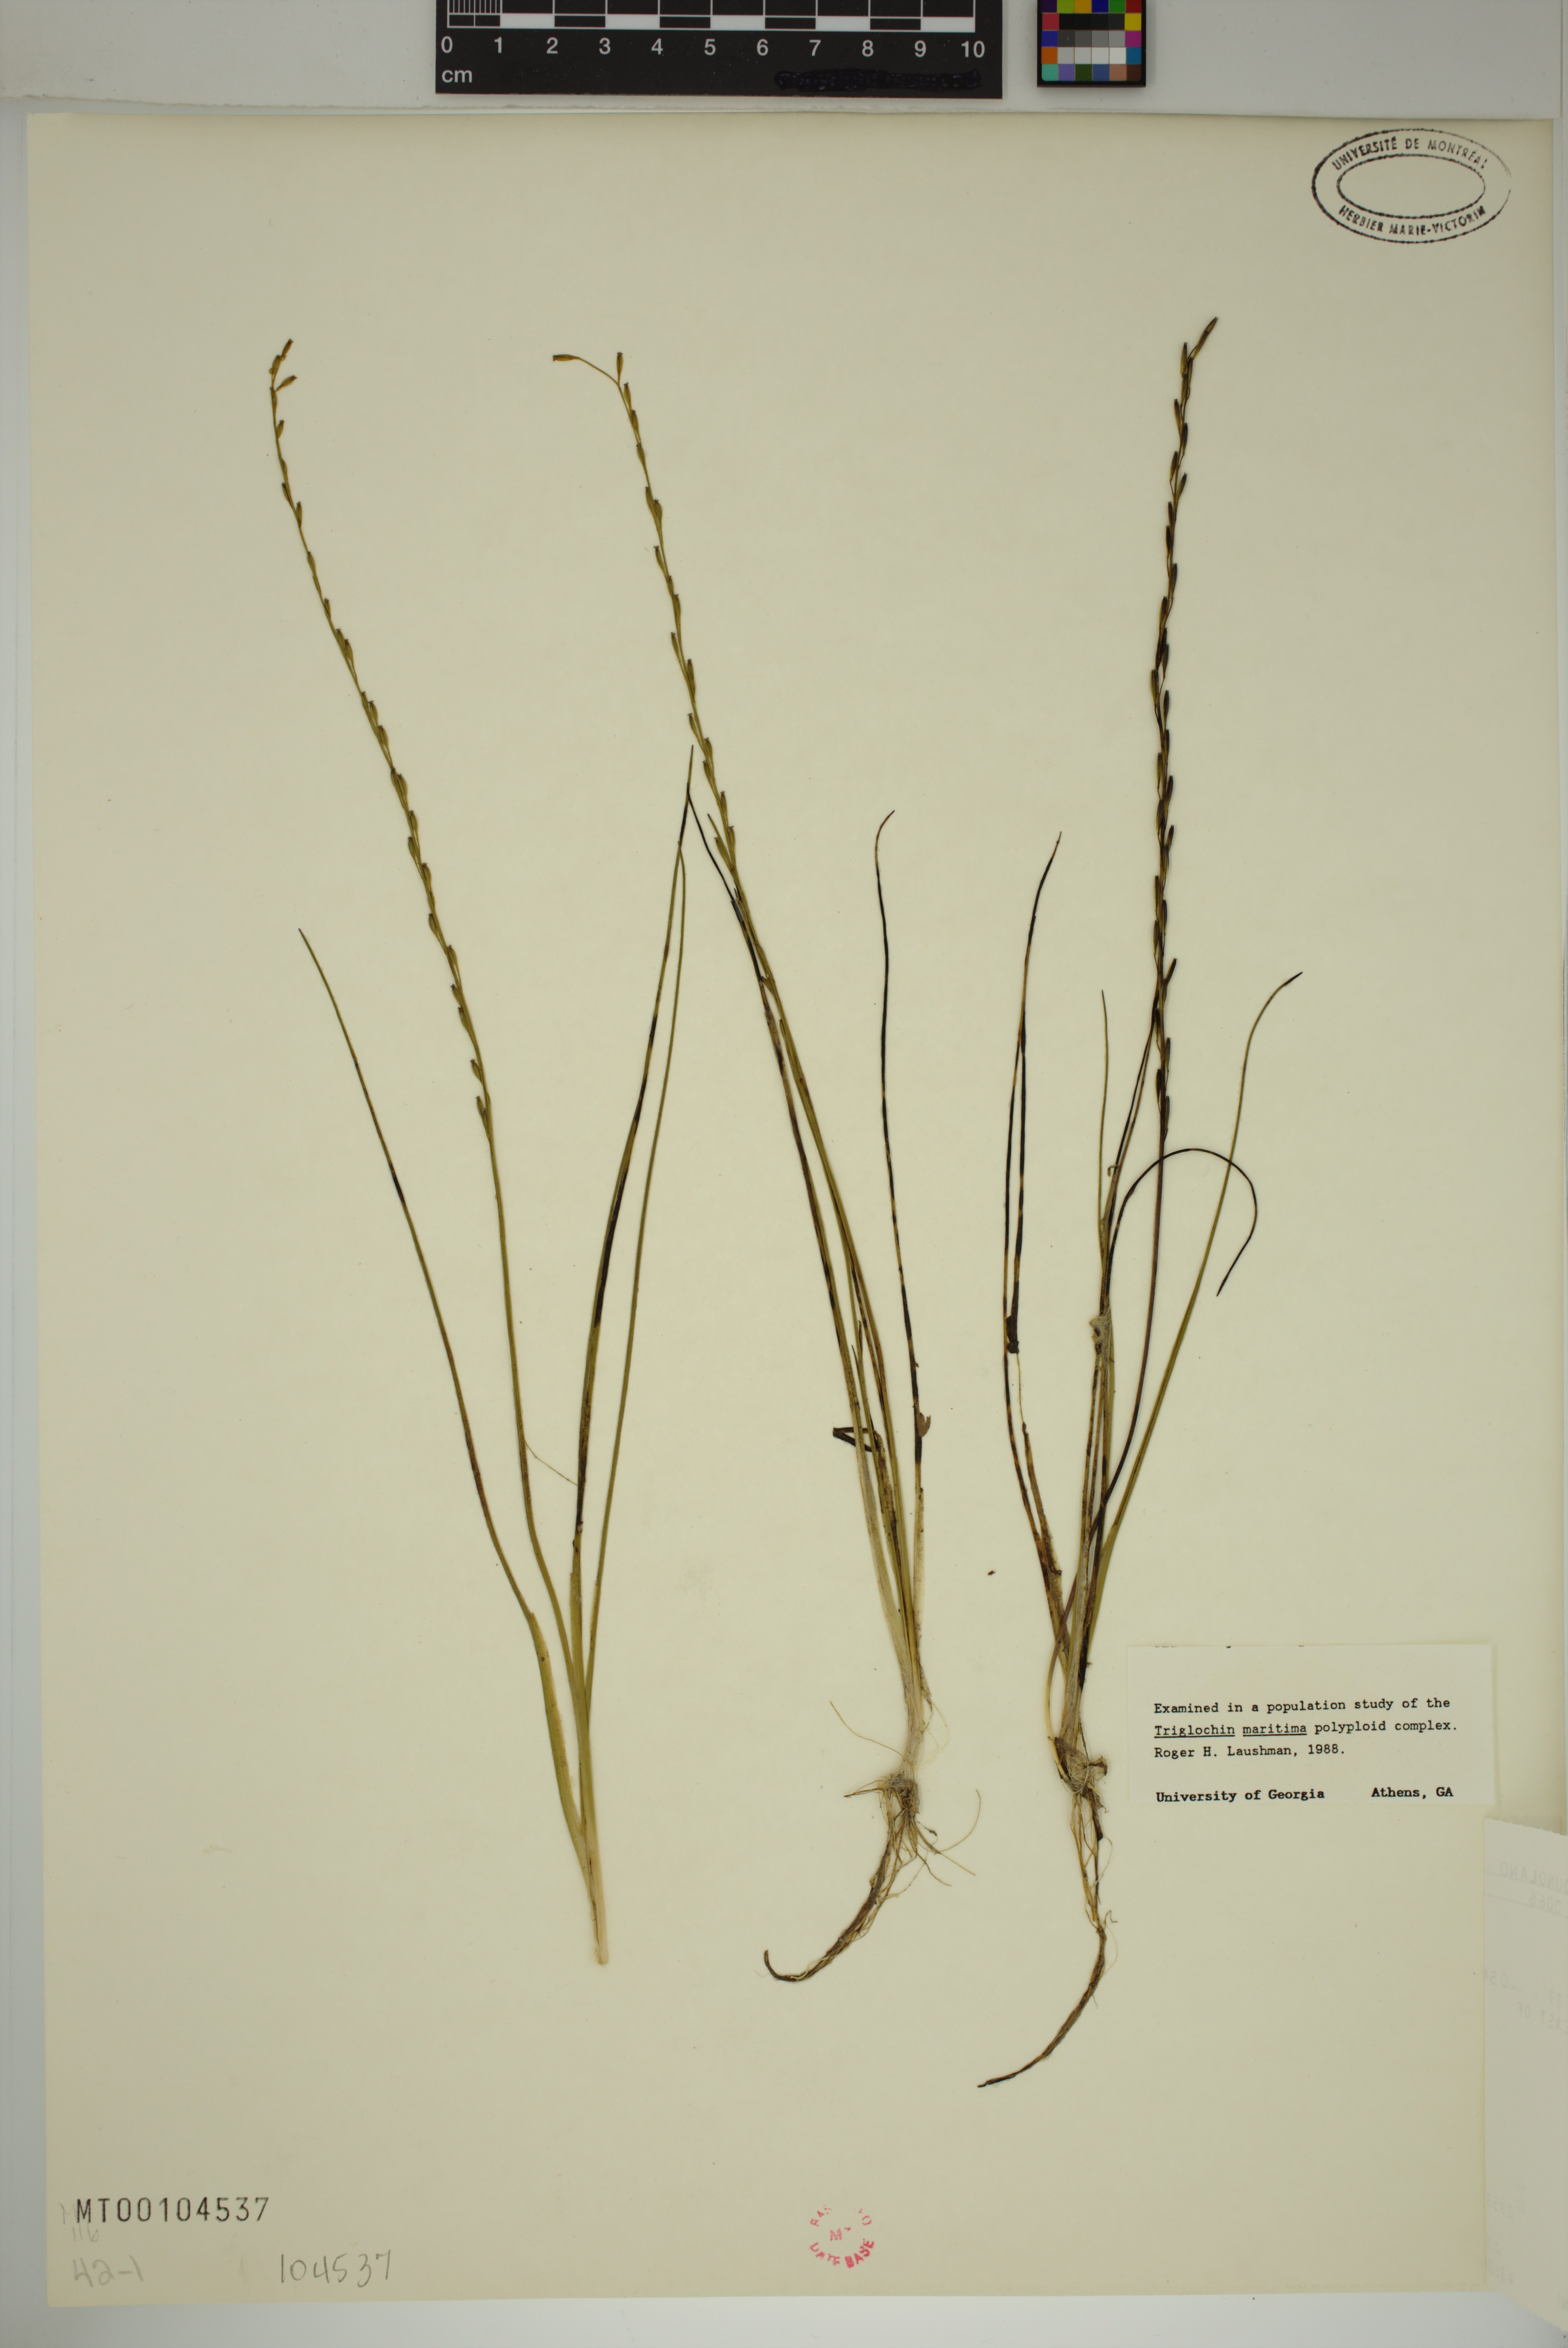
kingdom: Plantae
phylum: Tracheophyta
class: Liliopsida
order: Alismatales
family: Juncaginaceae
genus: Triglochin
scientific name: Triglochin palustris
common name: Marsh arrowgrass
